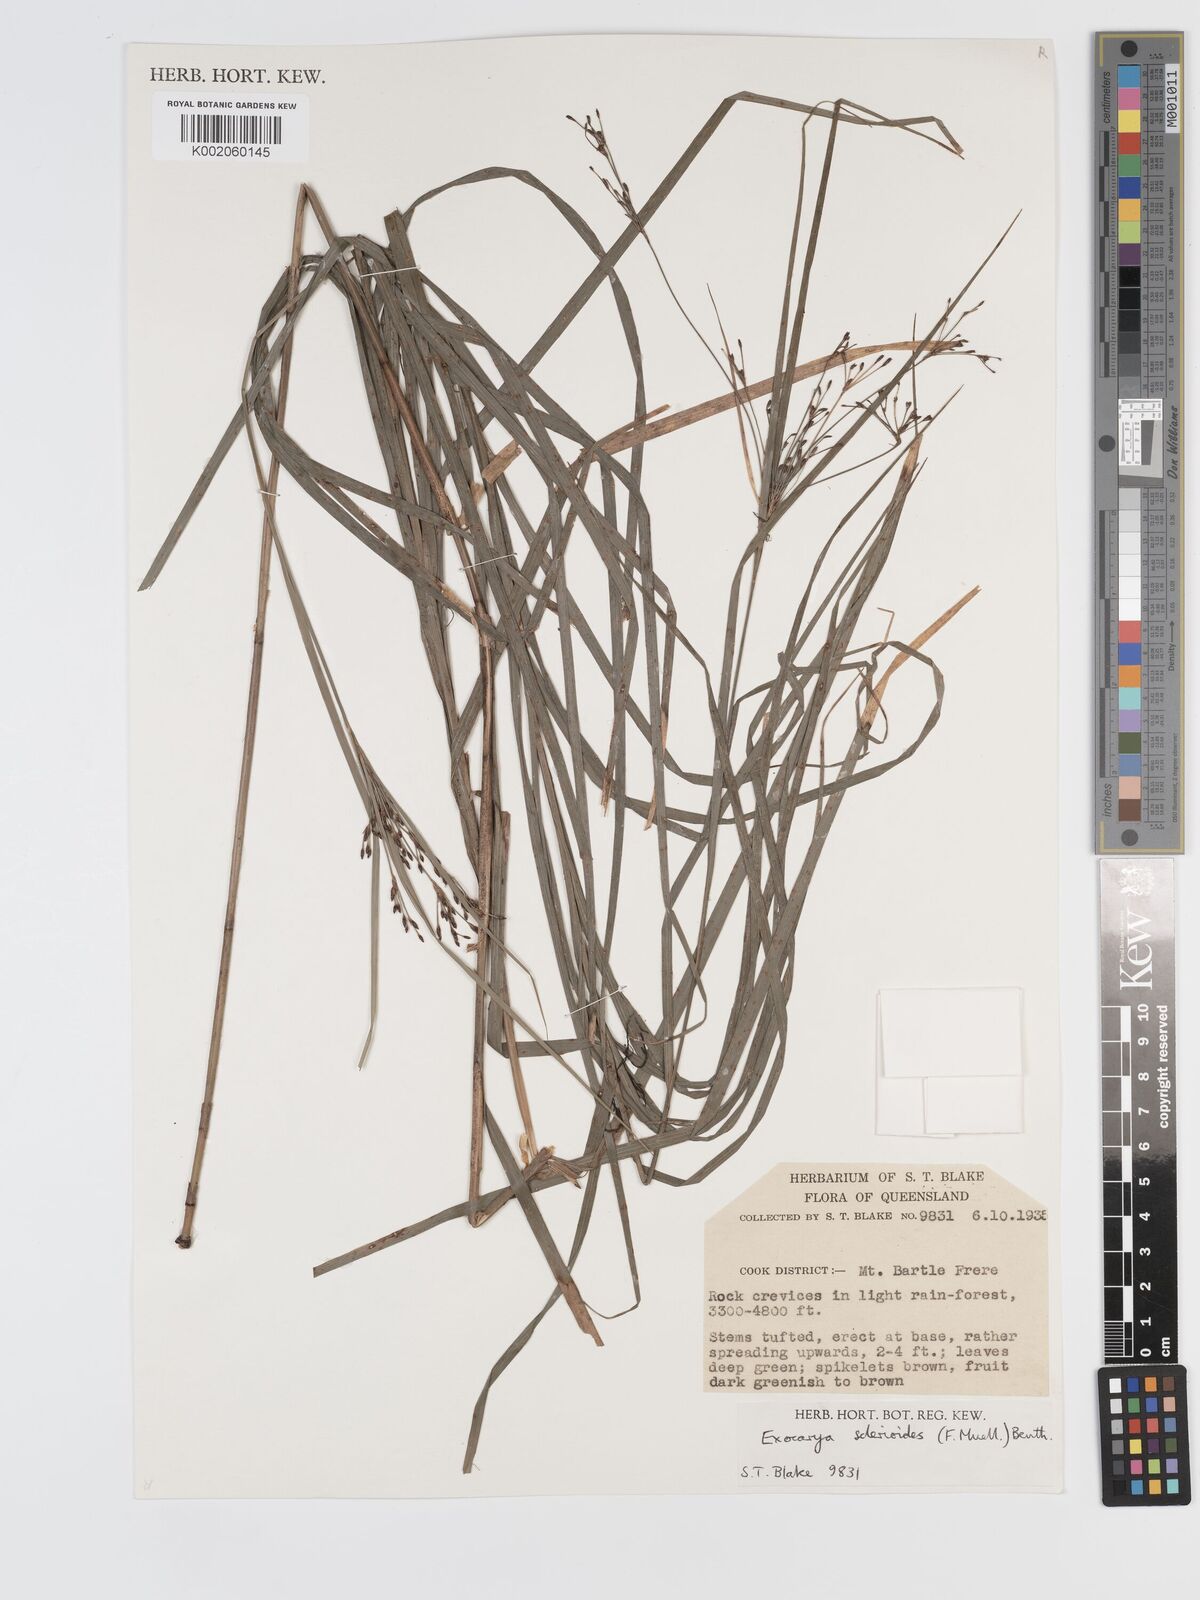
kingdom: Plantae
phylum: Tracheophyta
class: Liliopsida
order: Poales
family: Cyperaceae
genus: Exocarya
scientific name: Exocarya sclerioides
